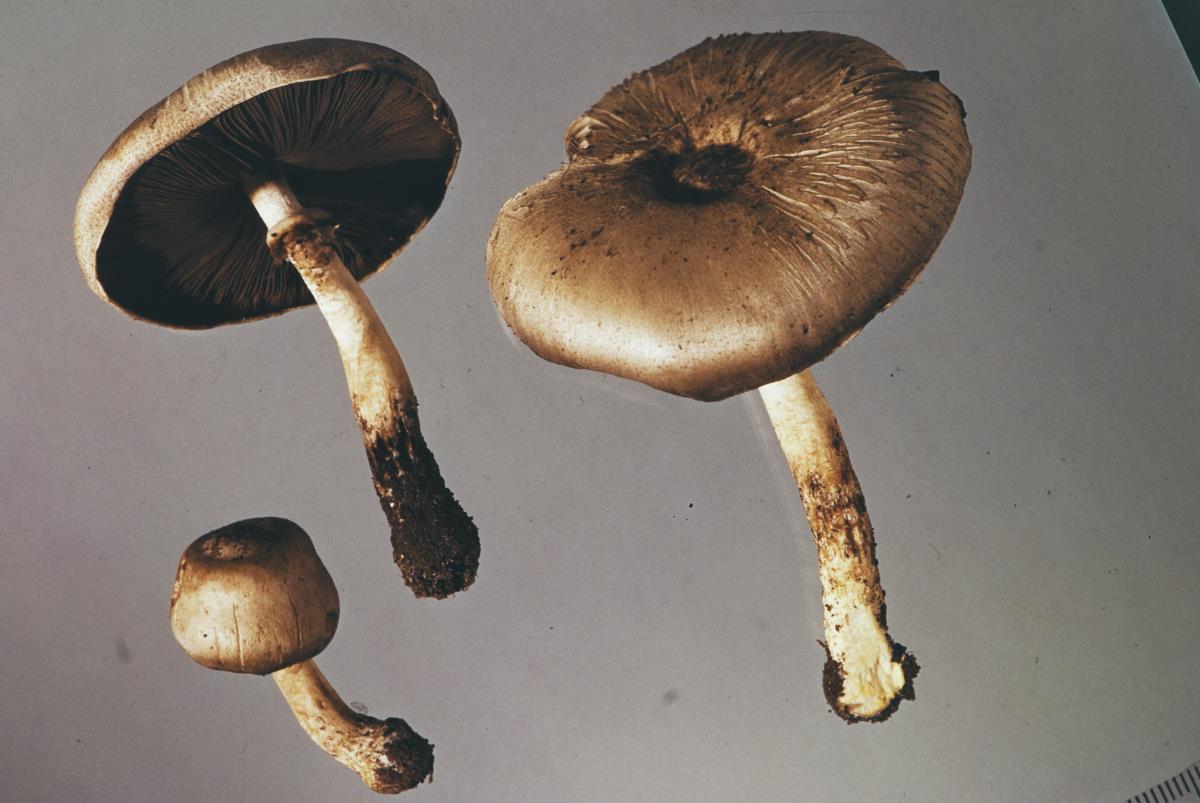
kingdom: Fungi
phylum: Basidiomycota
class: Agaricomycetes
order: Agaricales
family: Agaricaceae
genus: Agaricus
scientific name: Agaricus
